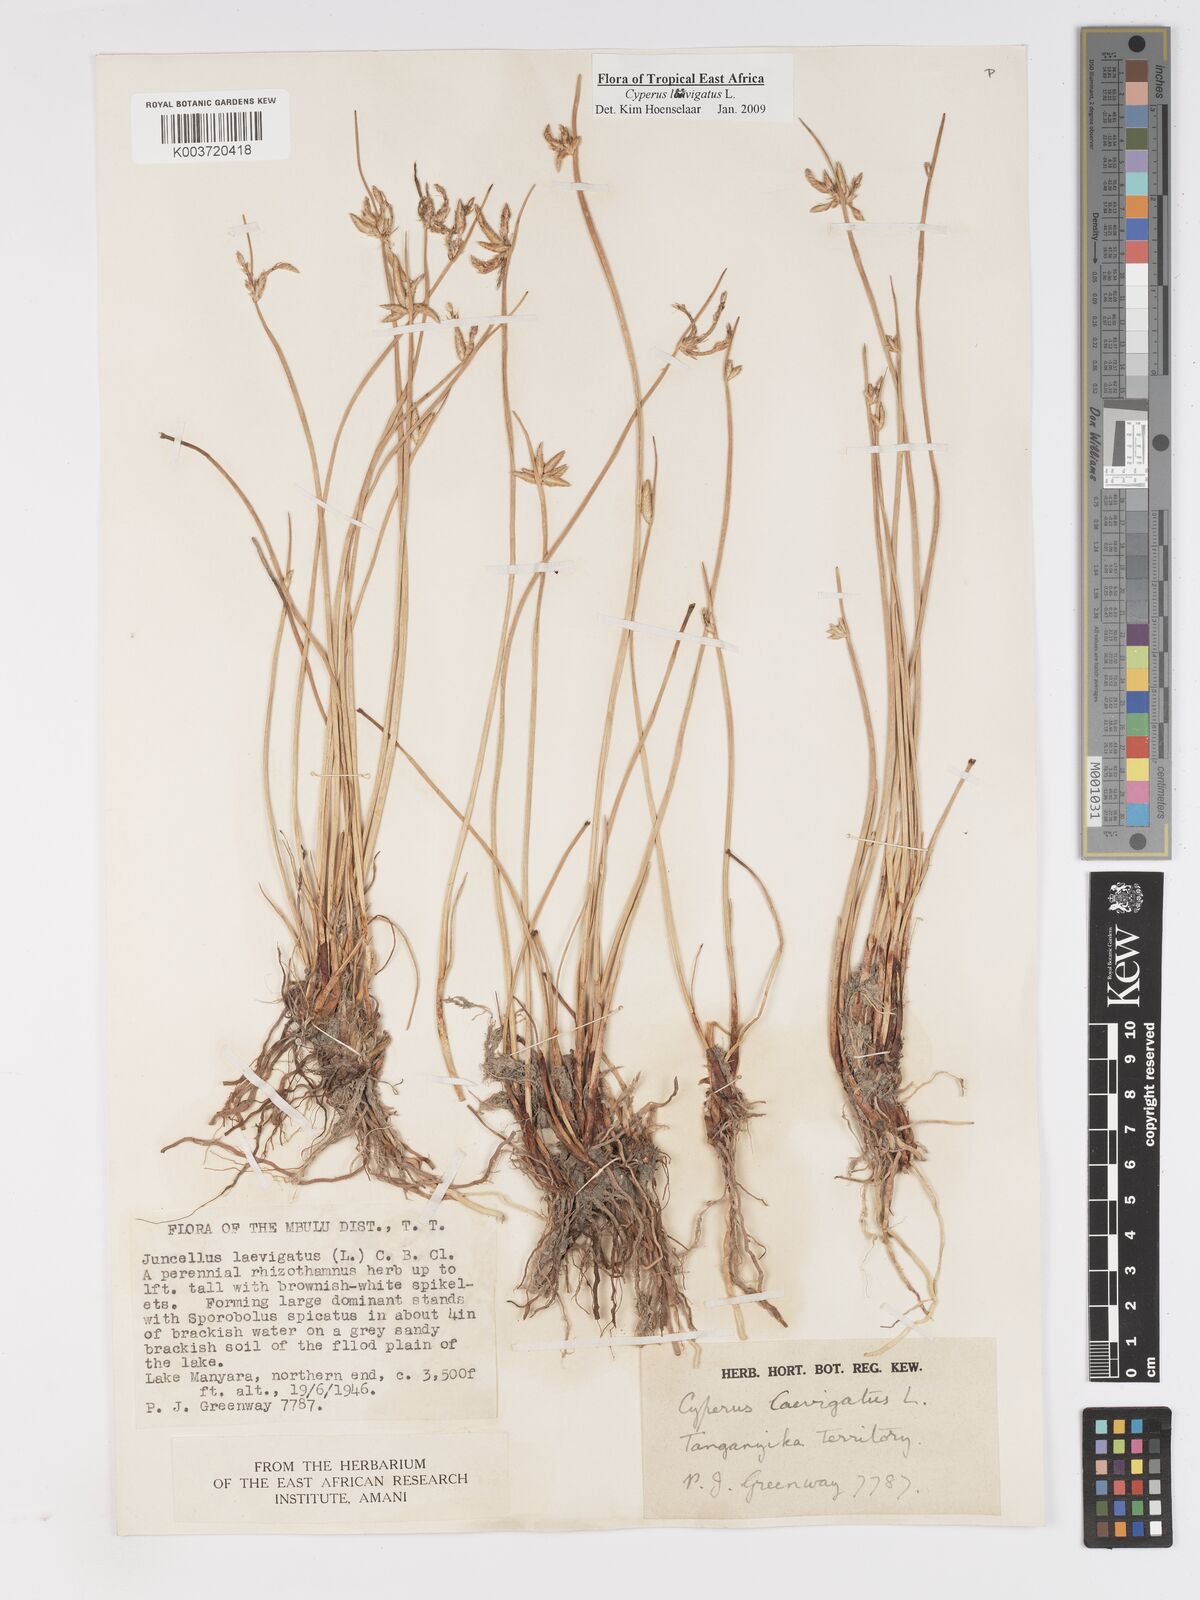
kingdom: Plantae
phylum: Tracheophyta
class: Liliopsida
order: Poales
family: Cyperaceae
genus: Cyperus
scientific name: Cyperus laevigatus
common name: Smooth flat sedge
